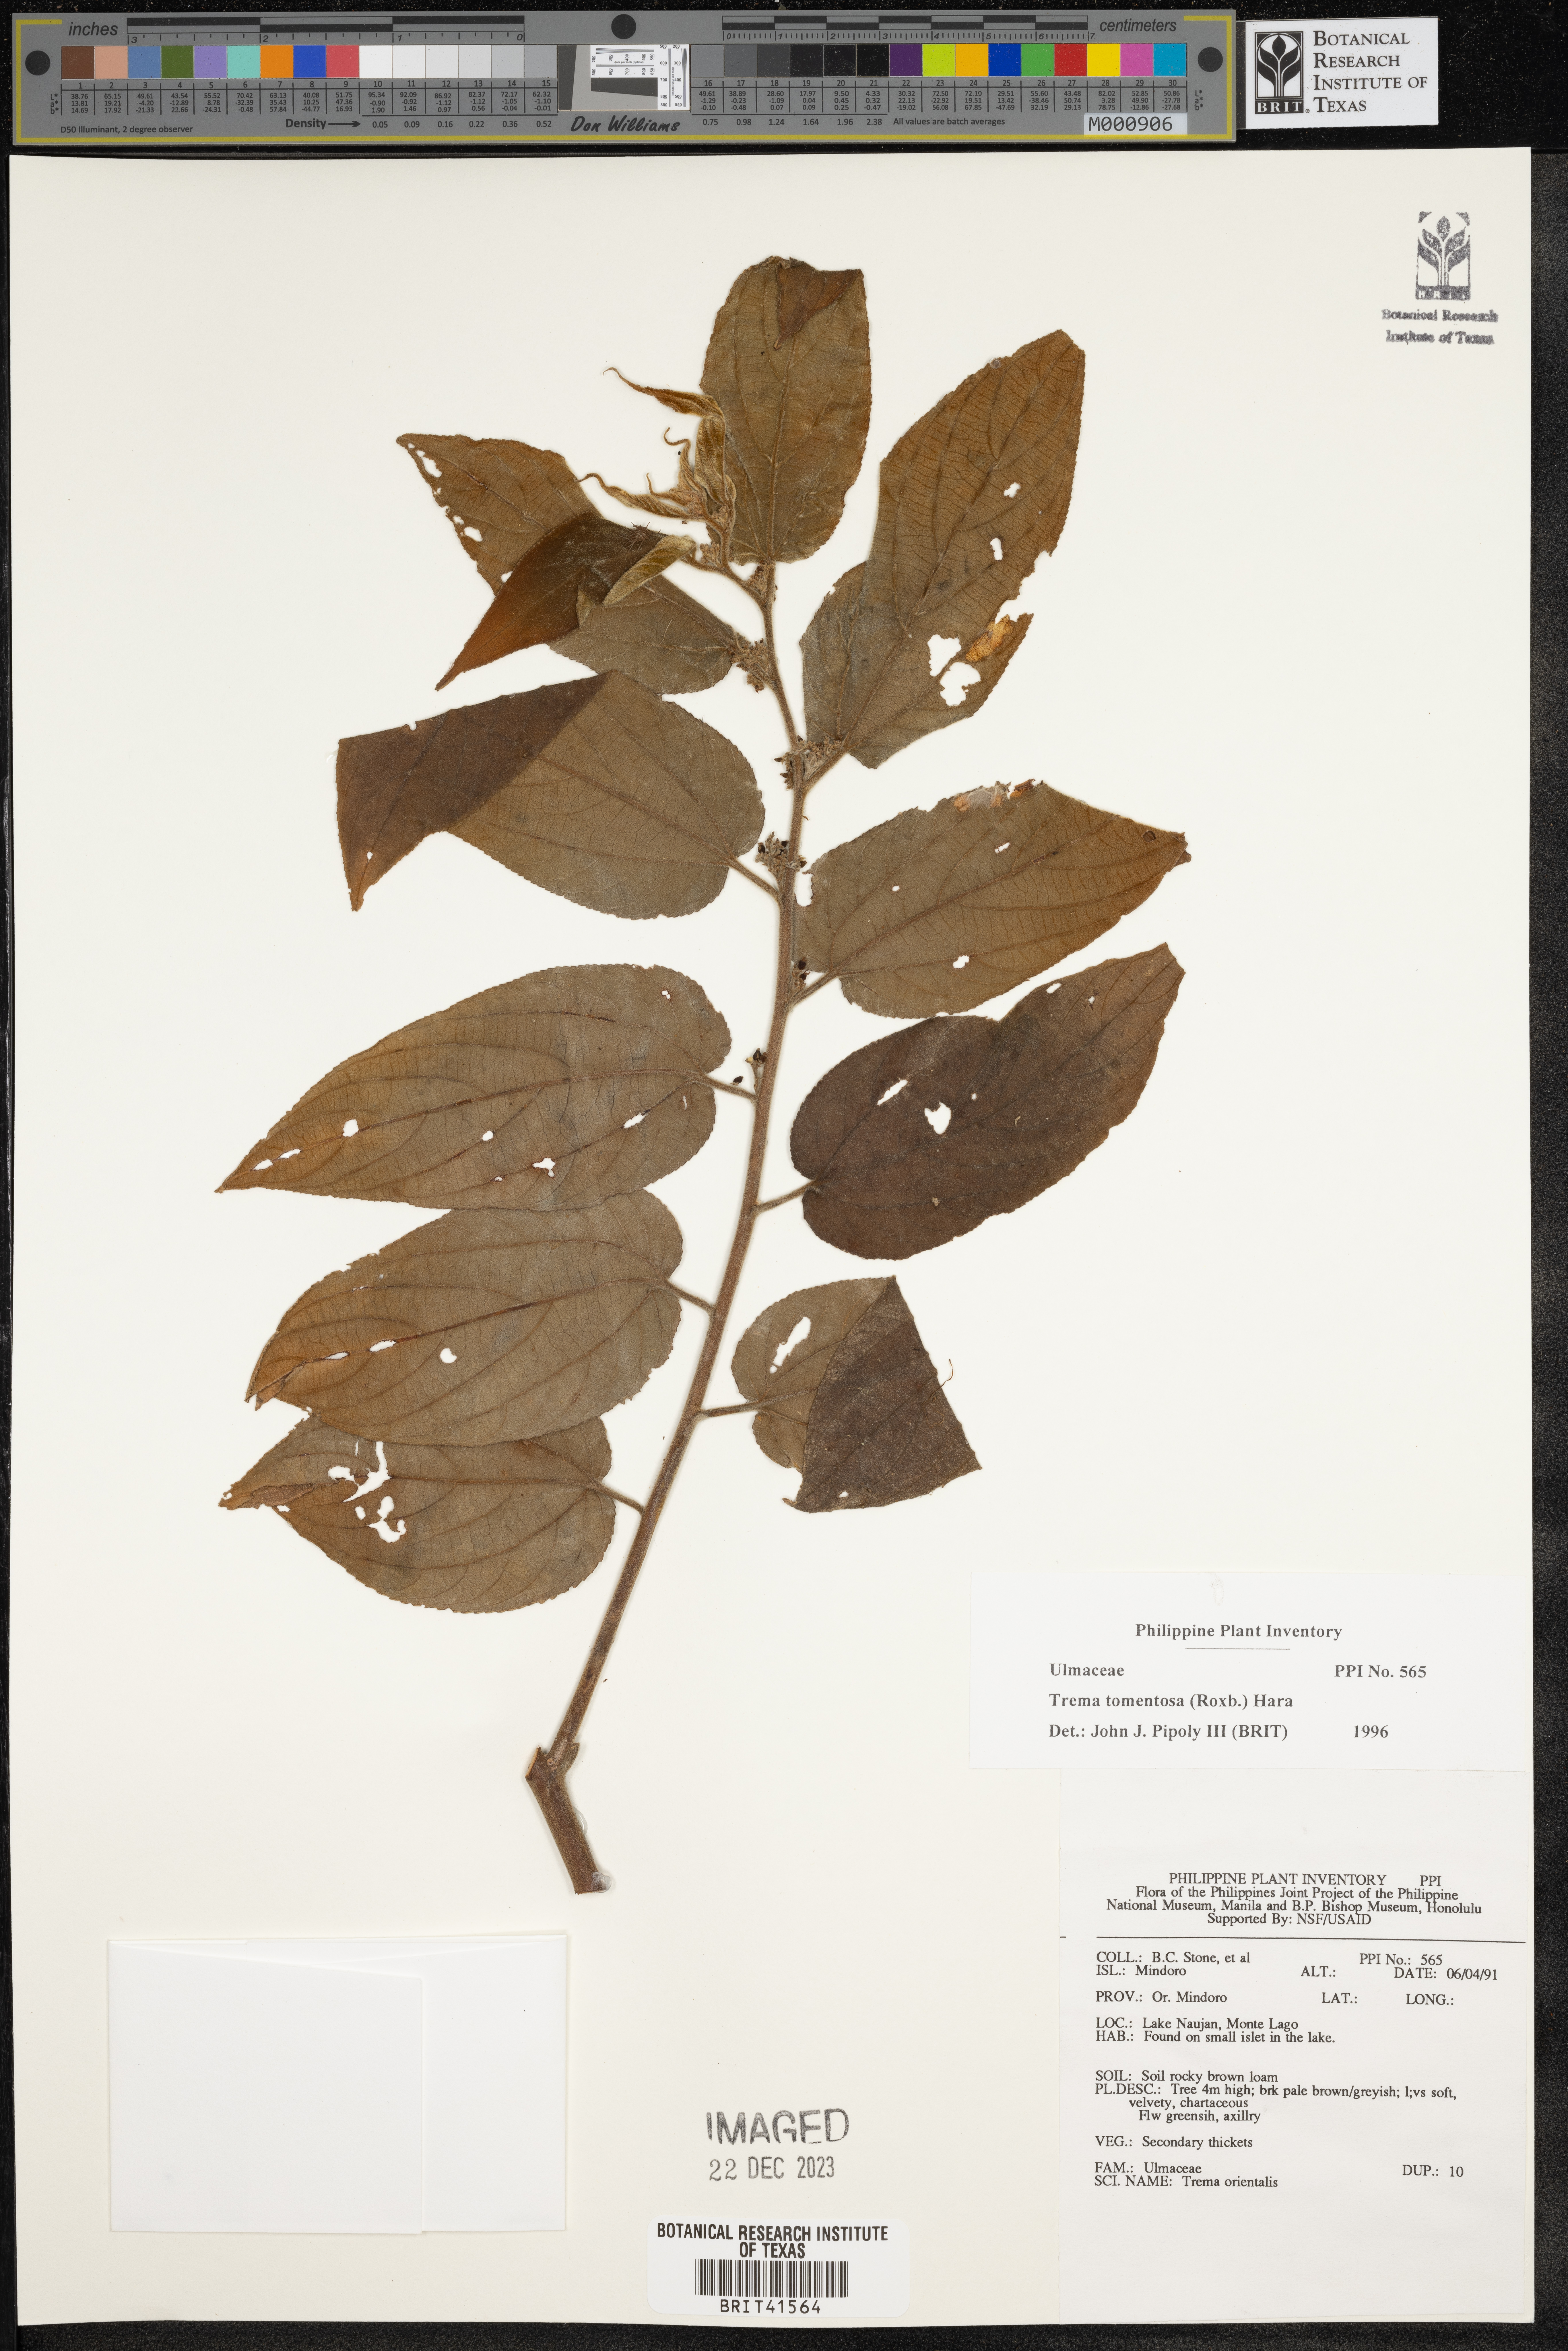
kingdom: Plantae
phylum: Tracheophyta
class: Magnoliopsida
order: Rosales
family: Cannabaceae
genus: Trema
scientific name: Trema tomentosum
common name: Peach-leaf-poisonbush
